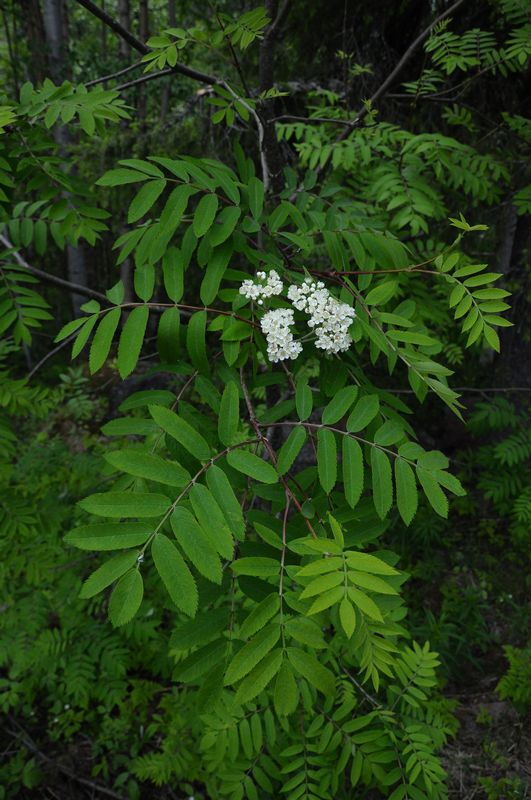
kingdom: Plantae
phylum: Tracheophyta
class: Magnoliopsida
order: Rosales
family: Rosaceae
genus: Sorbus
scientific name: Sorbus aucuparia
